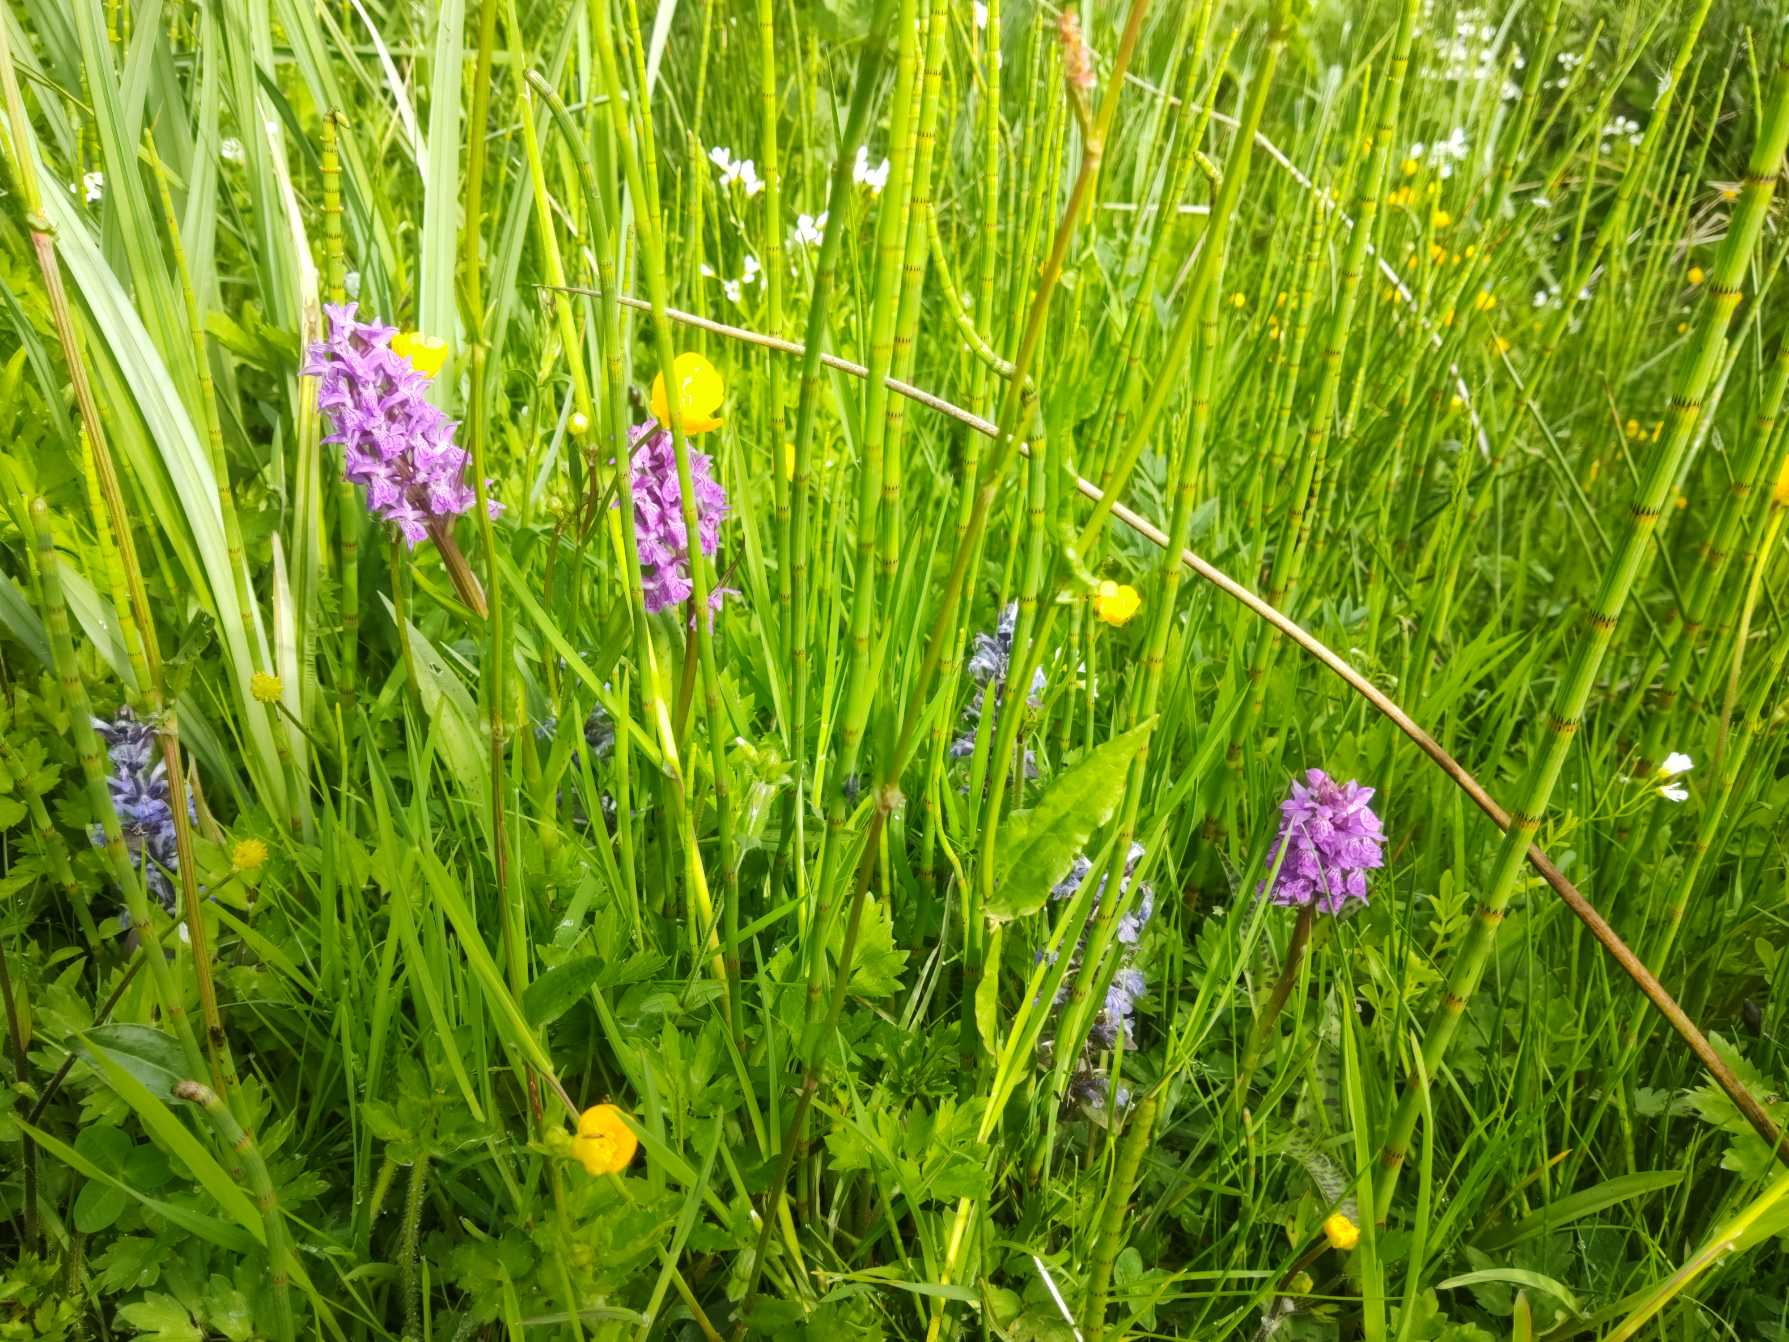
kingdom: Plantae
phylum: Tracheophyta
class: Liliopsida
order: Asparagales
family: Orchidaceae
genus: Dactylorhiza
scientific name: Dactylorhiza majalis
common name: Maj-gøgeurt
